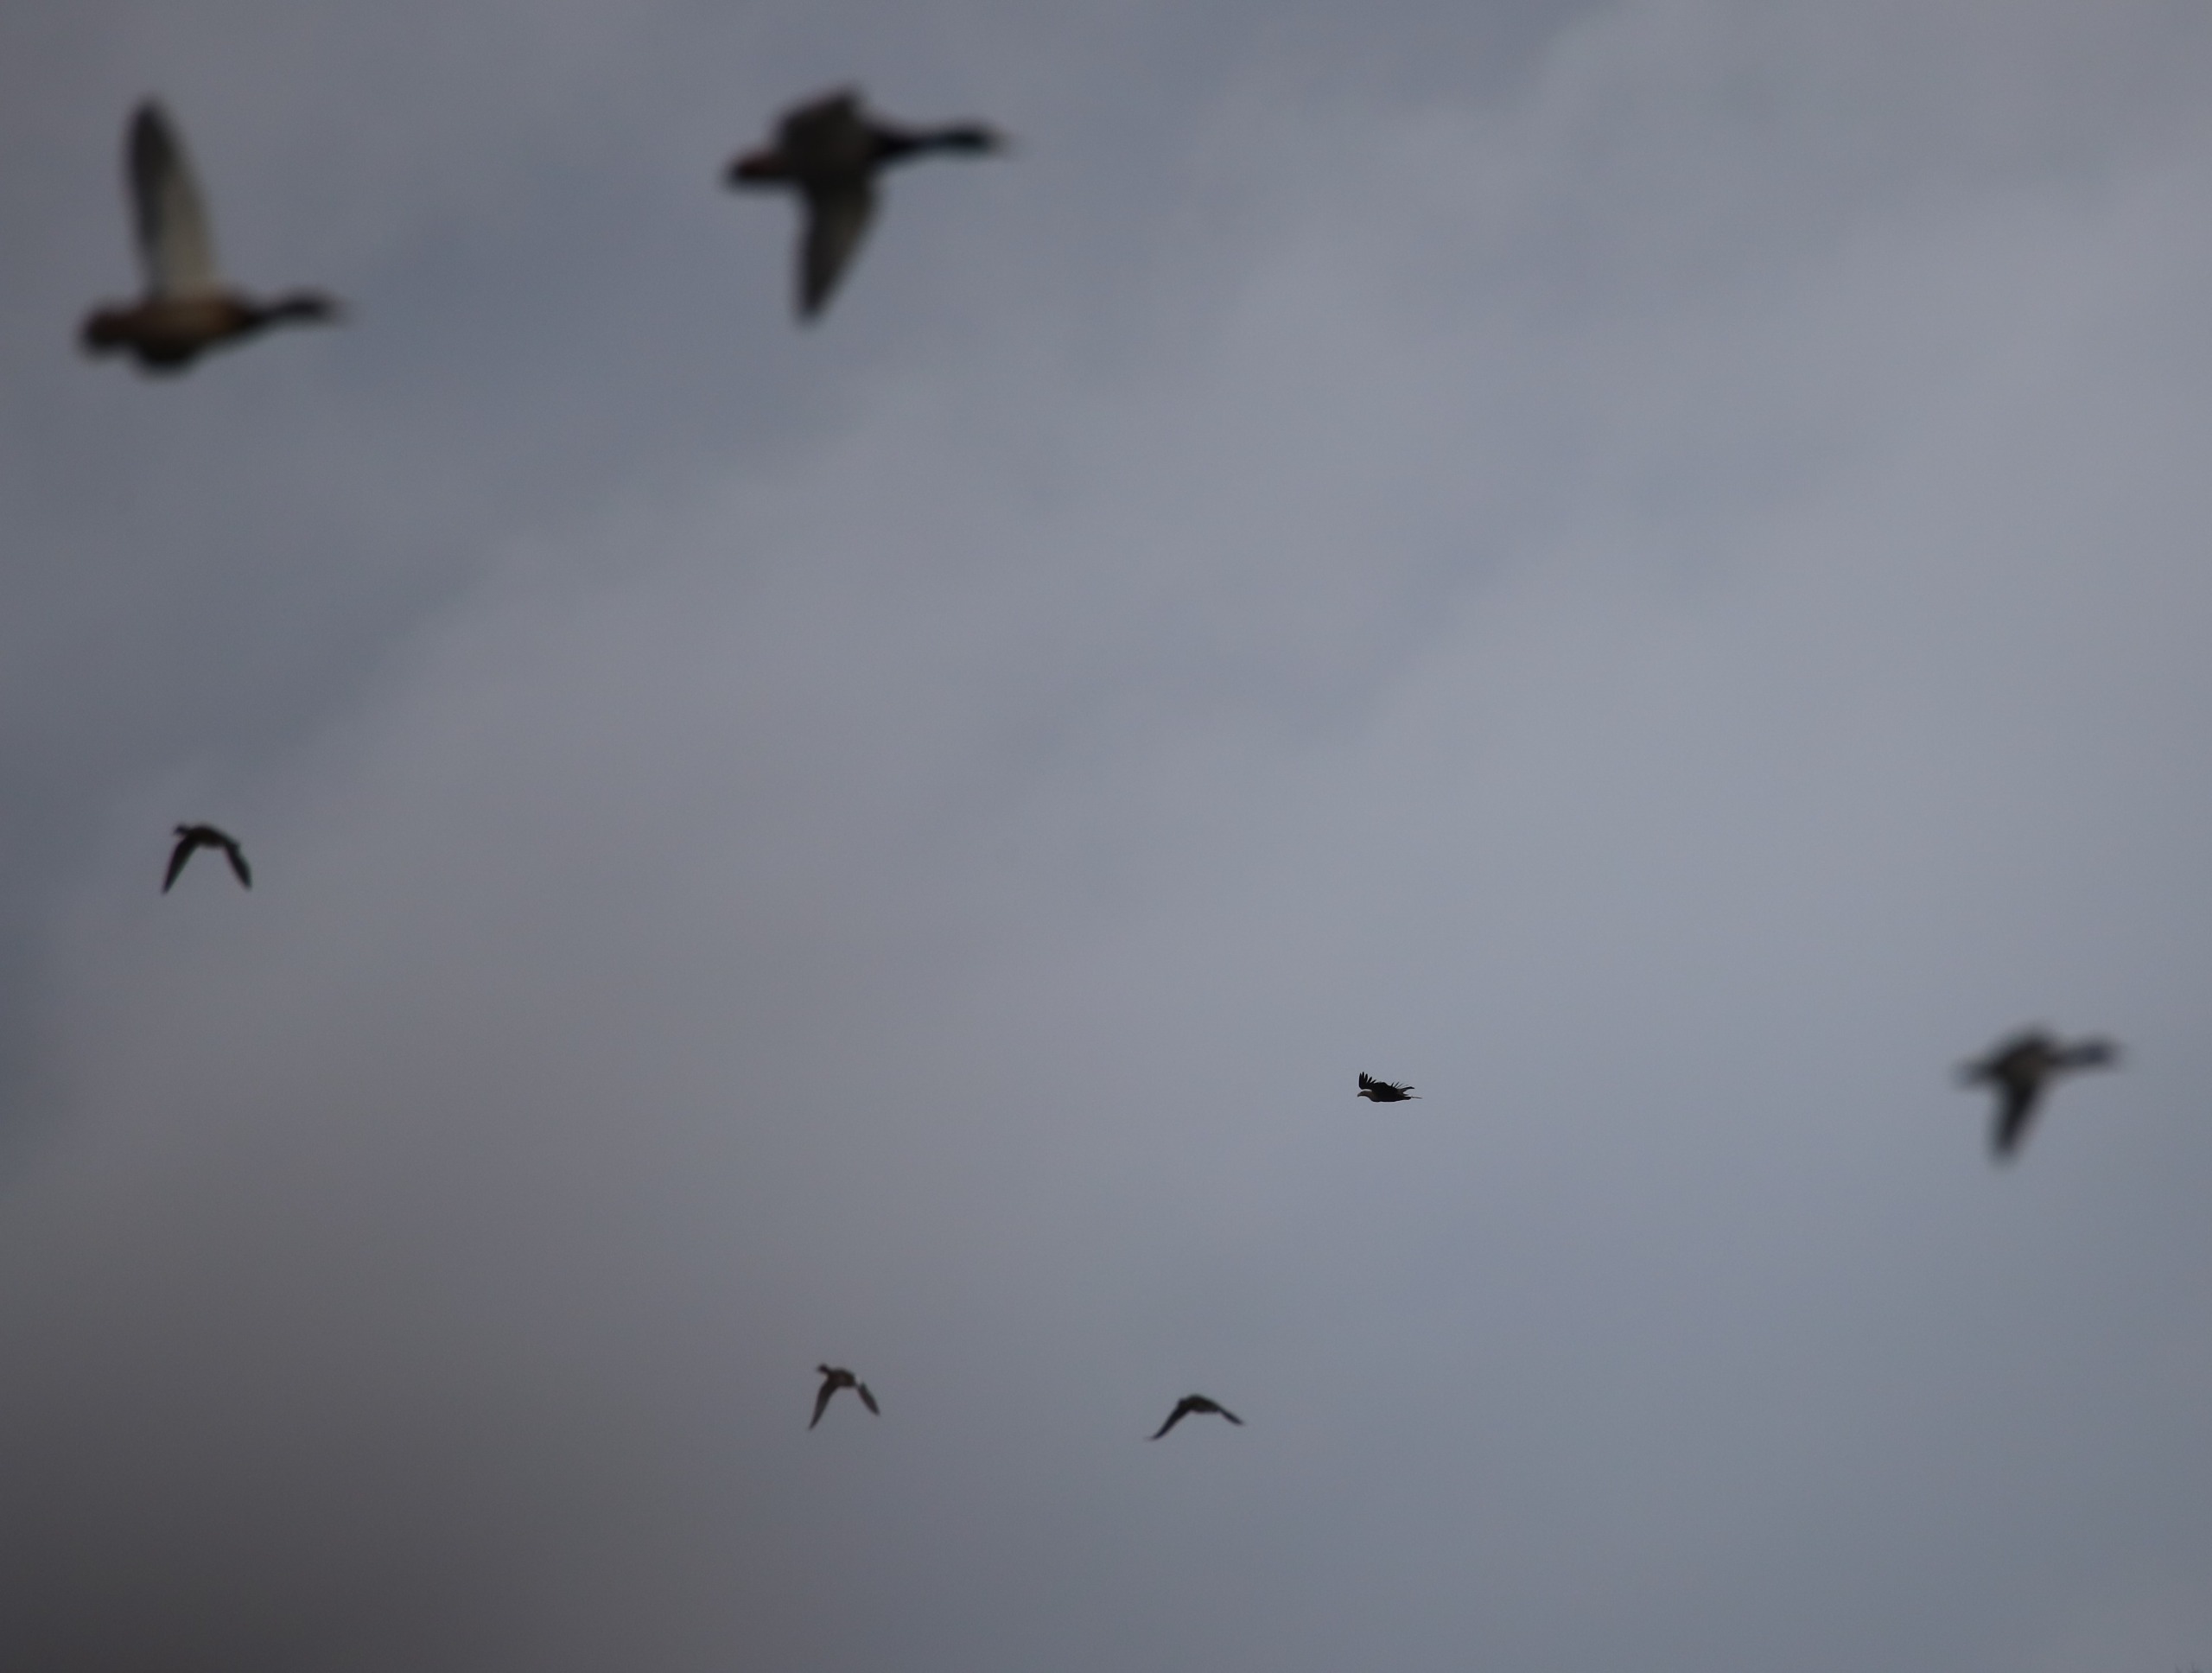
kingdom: Animalia
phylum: Chordata
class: Aves
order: Accipitriformes
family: Accipitridae
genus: Haliaeetus
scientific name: Haliaeetus albicilla
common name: Havørn
